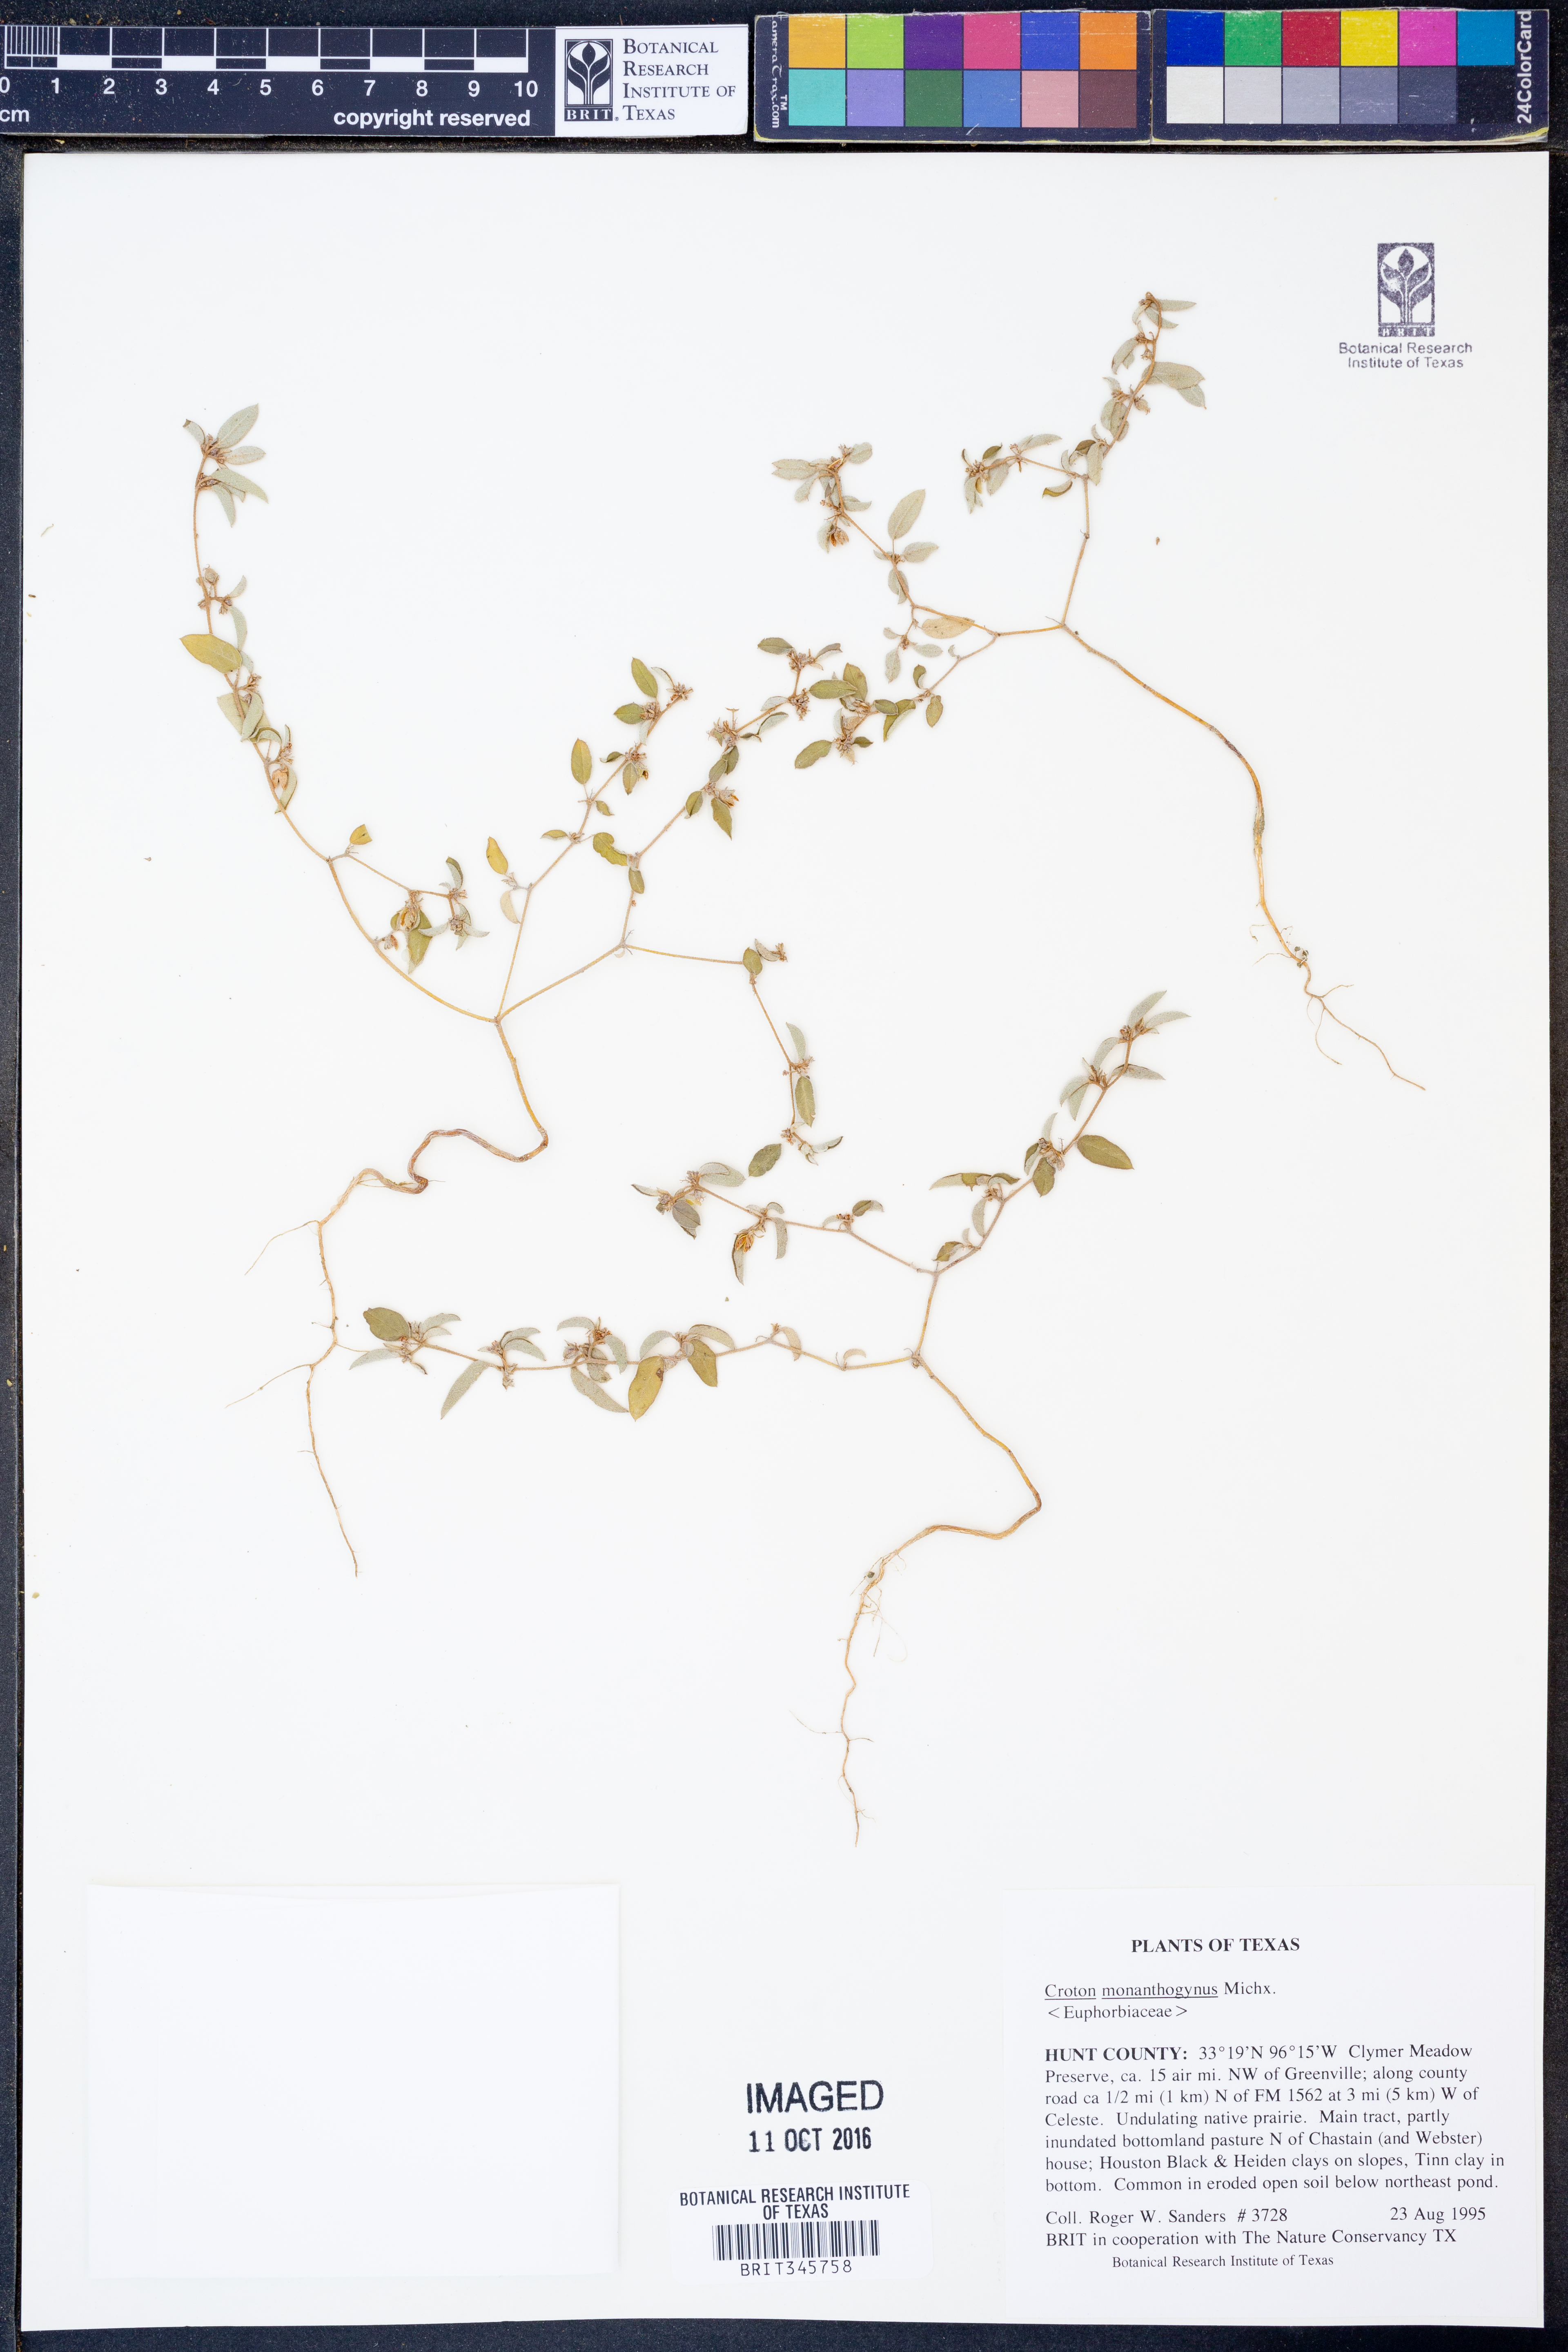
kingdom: Plantae
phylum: Tracheophyta
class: Magnoliopsida
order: Malpighiales
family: Euphorbiaceae
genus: Croton
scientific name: Croton monanthogynus
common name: One-seed croton
